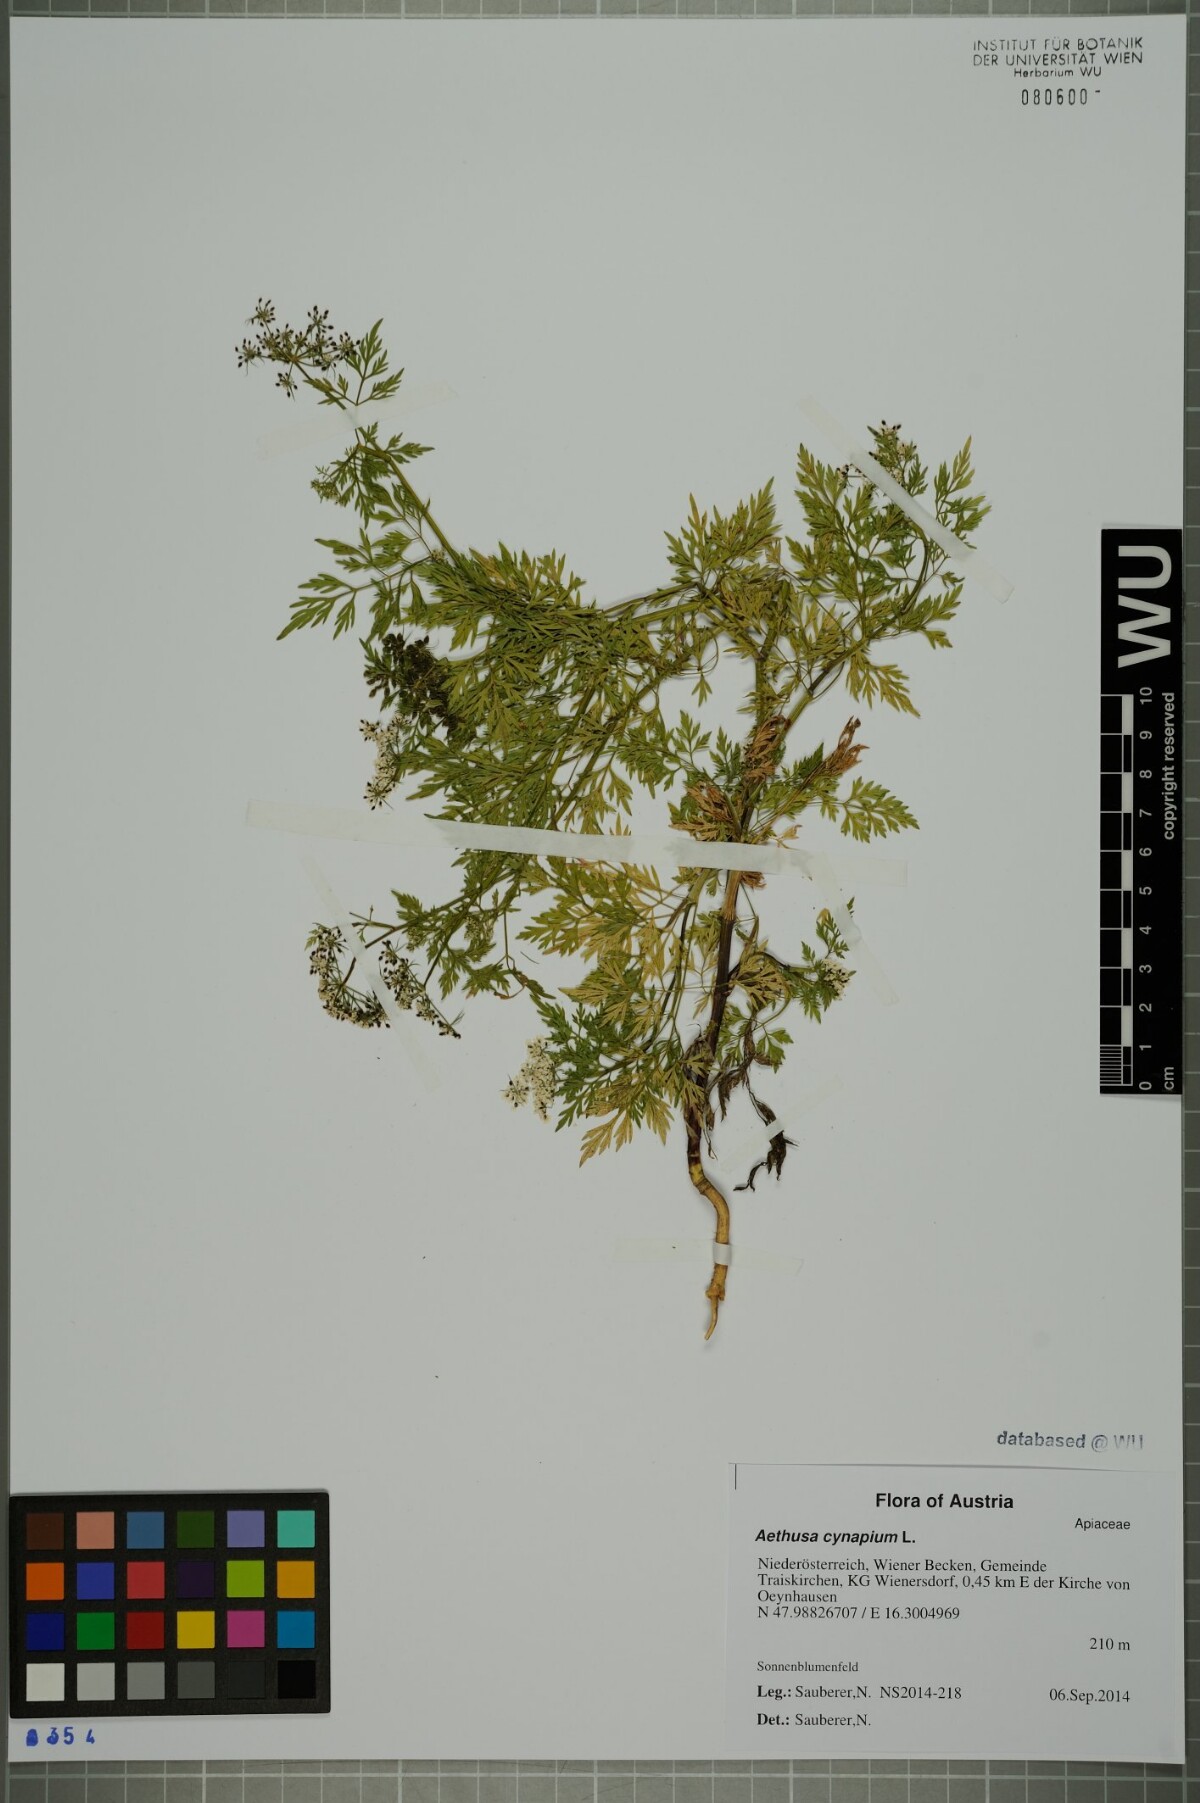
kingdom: Plantae
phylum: Tracheophyta
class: Magnoliopsida
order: Apiales
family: Apiaceae
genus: Aethusa
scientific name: Aethusa cynapium
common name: Fool's parsley
